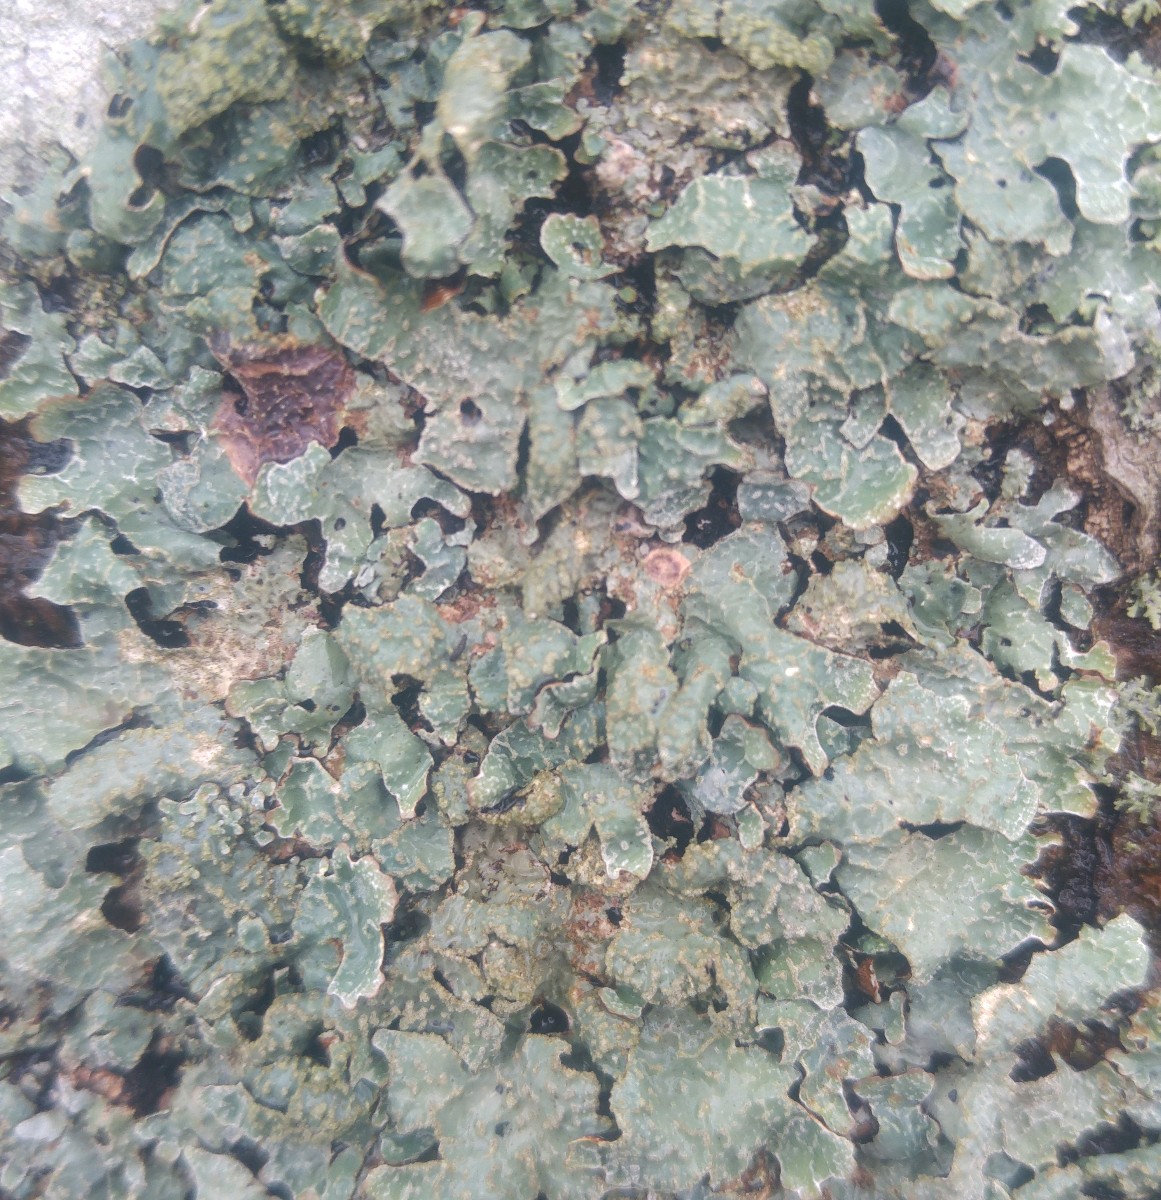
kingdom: Fungi
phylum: Ascomycota
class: Lecanoromycetes
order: Lecanorales
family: Parmeliaceae
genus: Parmelia
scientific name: Parmelia sulcata
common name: rynket skållav
